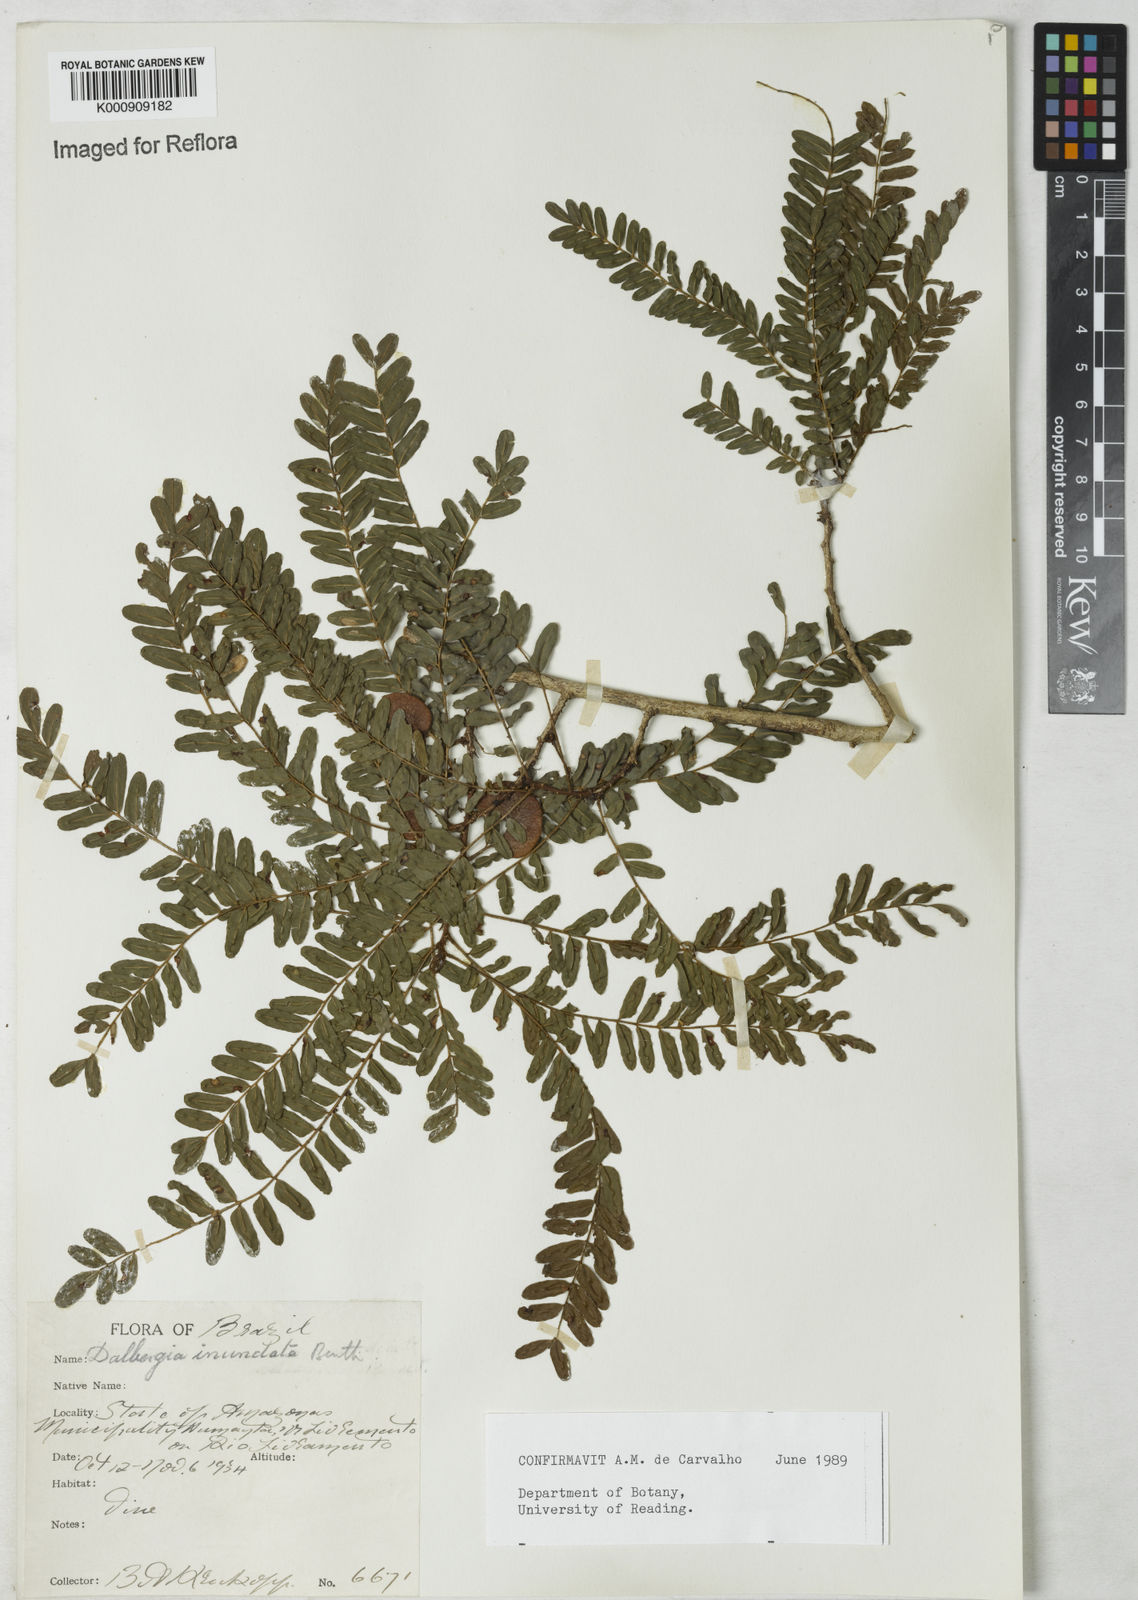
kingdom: Plantae
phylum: Tracheophyta
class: Magnoliopsida
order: Fabales
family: Fabaceae
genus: Dalbergia
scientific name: Dalbergia inundata
